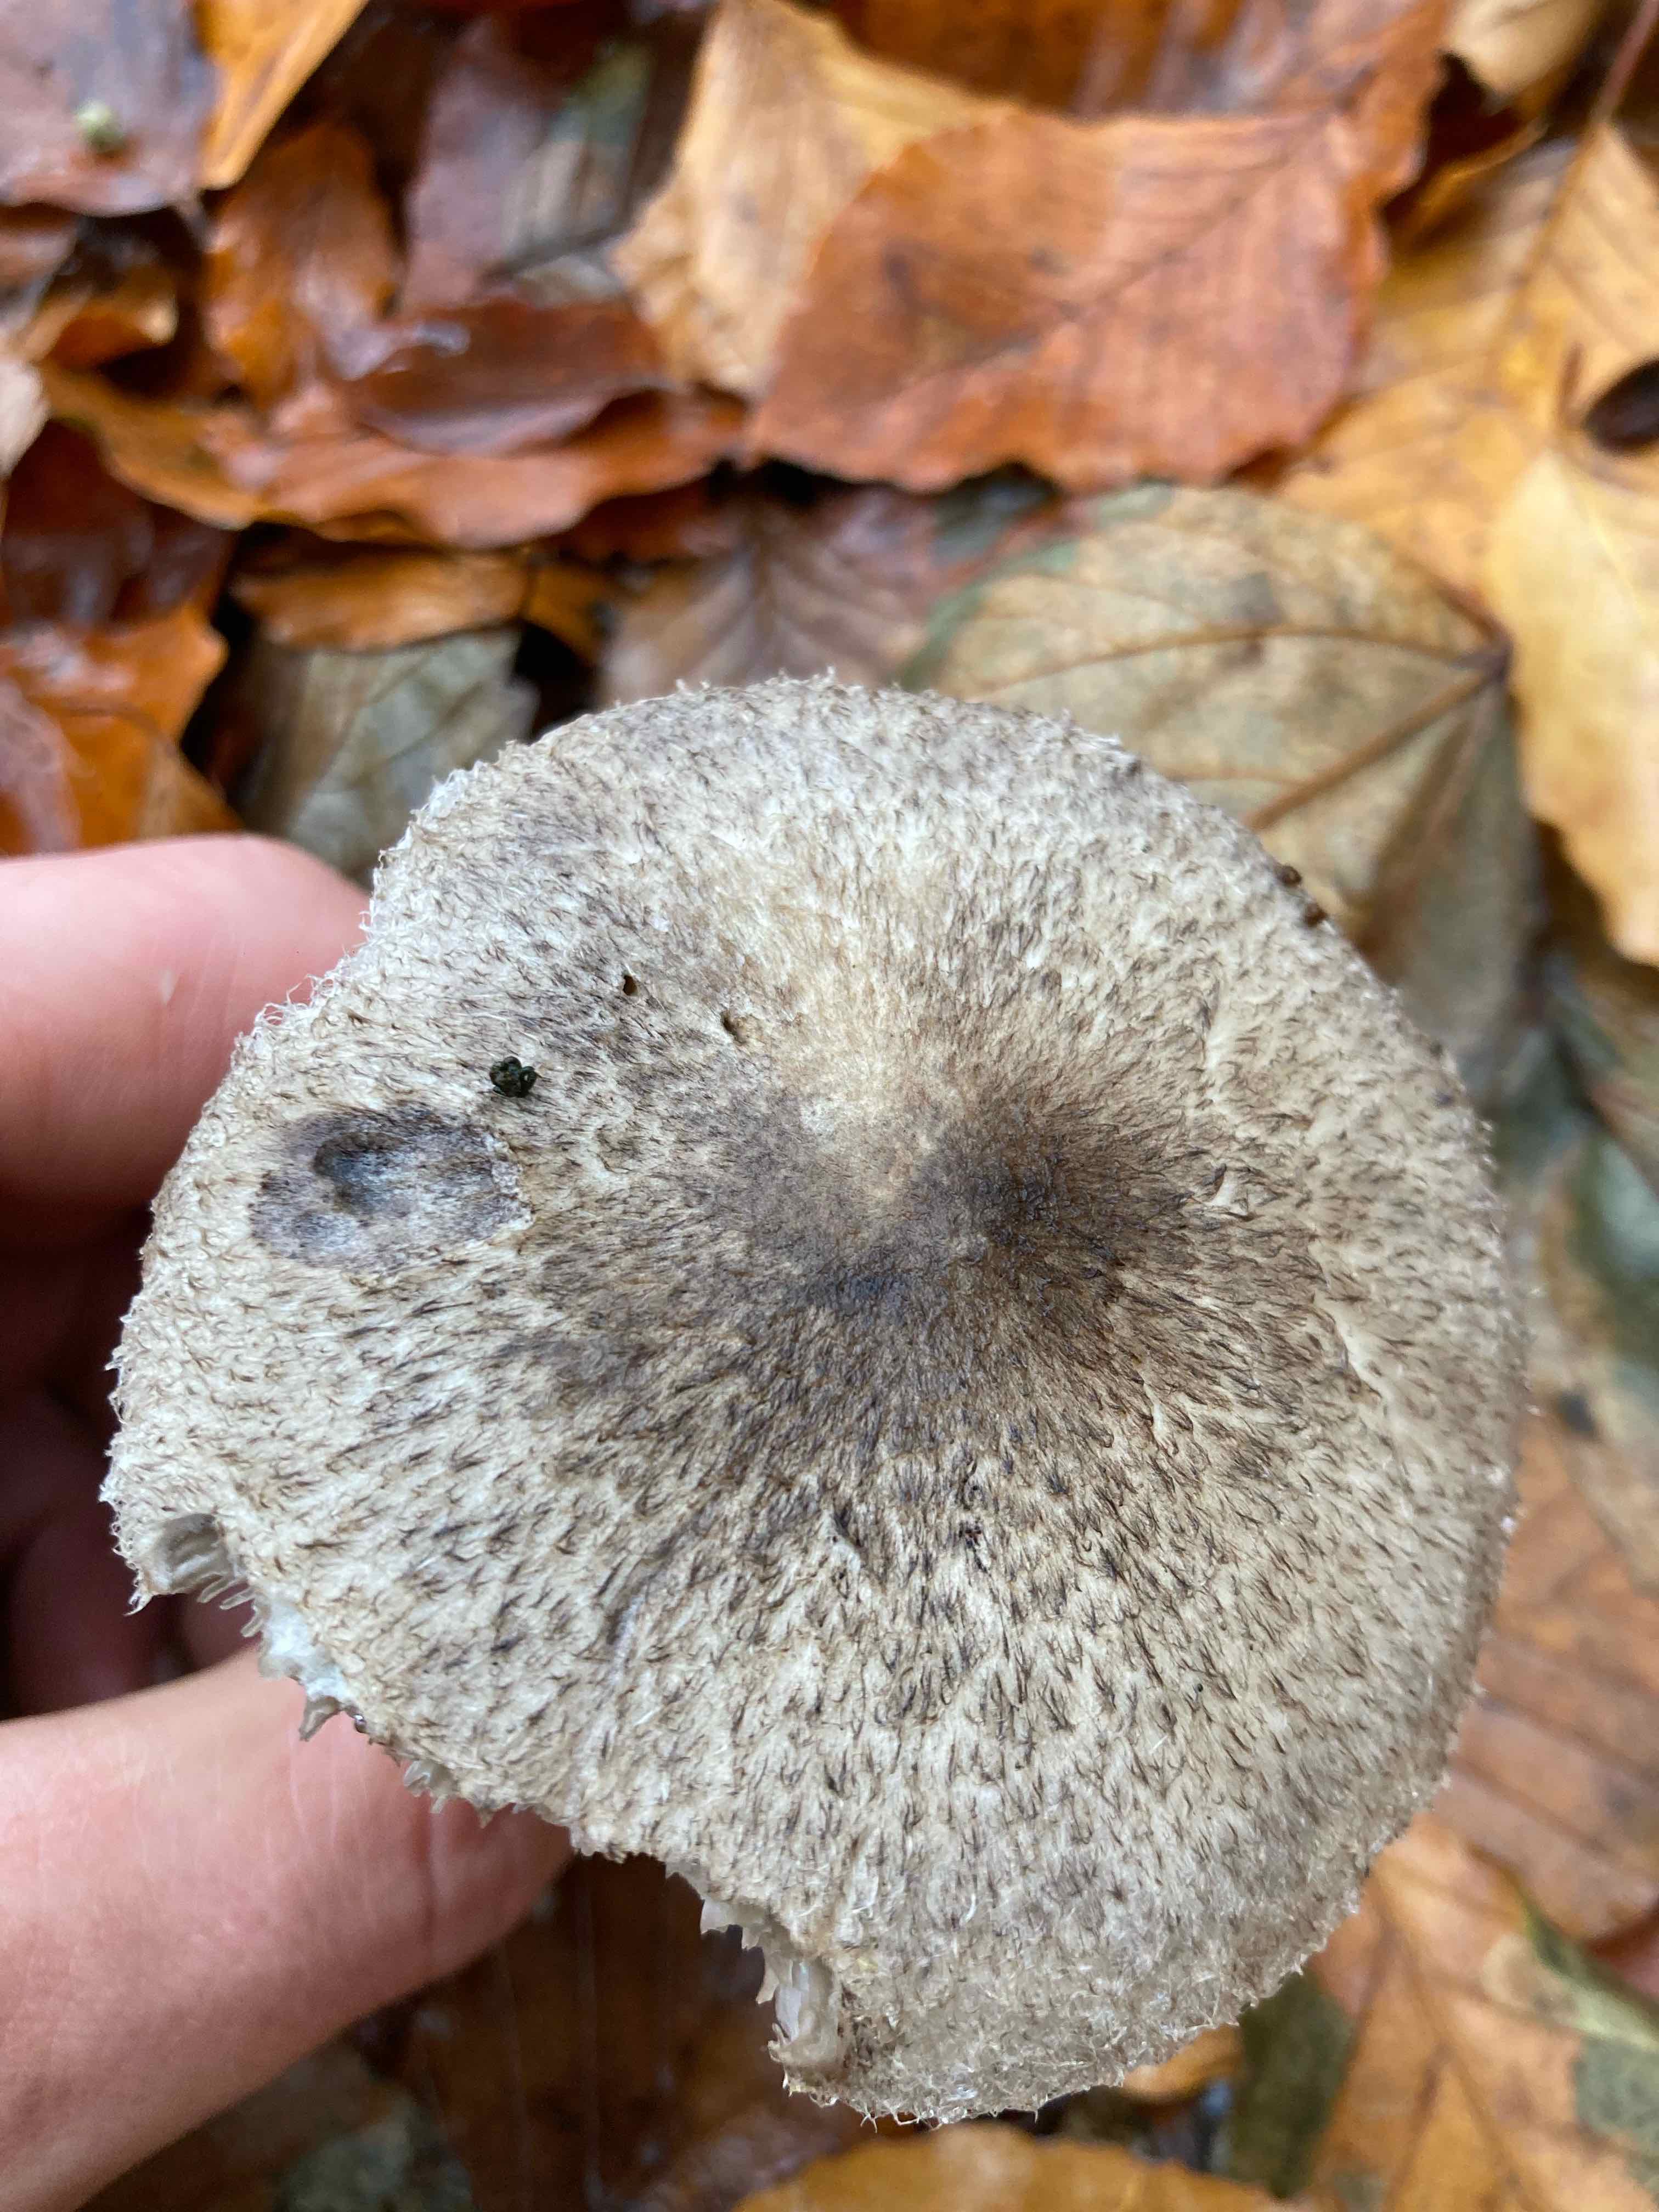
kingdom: Fungi
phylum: Basidiomycota
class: Agaricomycetes
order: Agaricales
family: Tricholomataceae
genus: Tricholoma
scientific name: Tricholoma atrosquamosum
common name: sortskællet ridderhat
